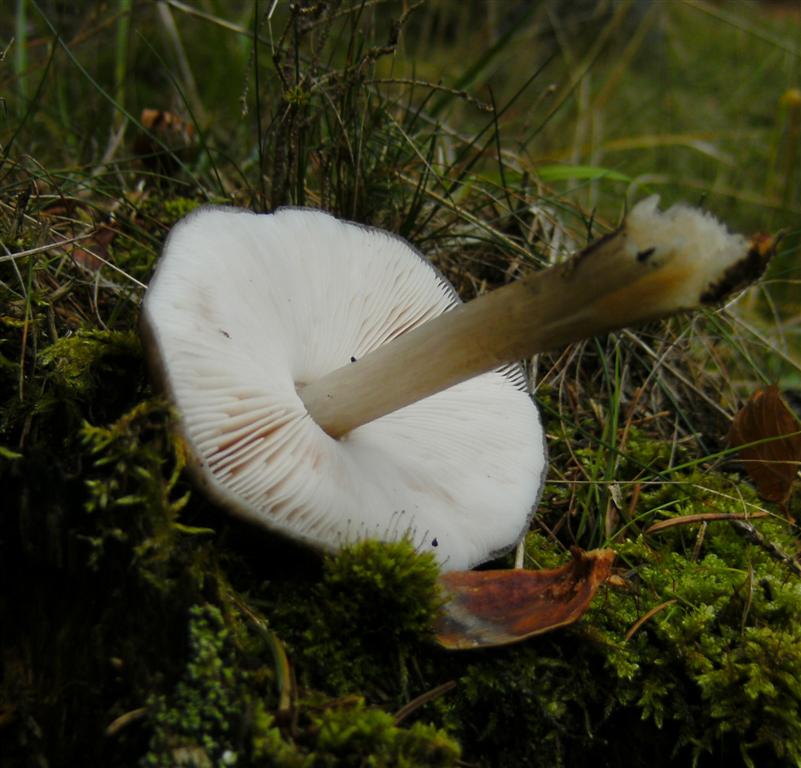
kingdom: Fungi
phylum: Basidiomycota
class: Agaricomycetes
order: Agaricales
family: Pluteaceae
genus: Pluteus
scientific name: Pluteus pouzarianus
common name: plantage-skærmhat
